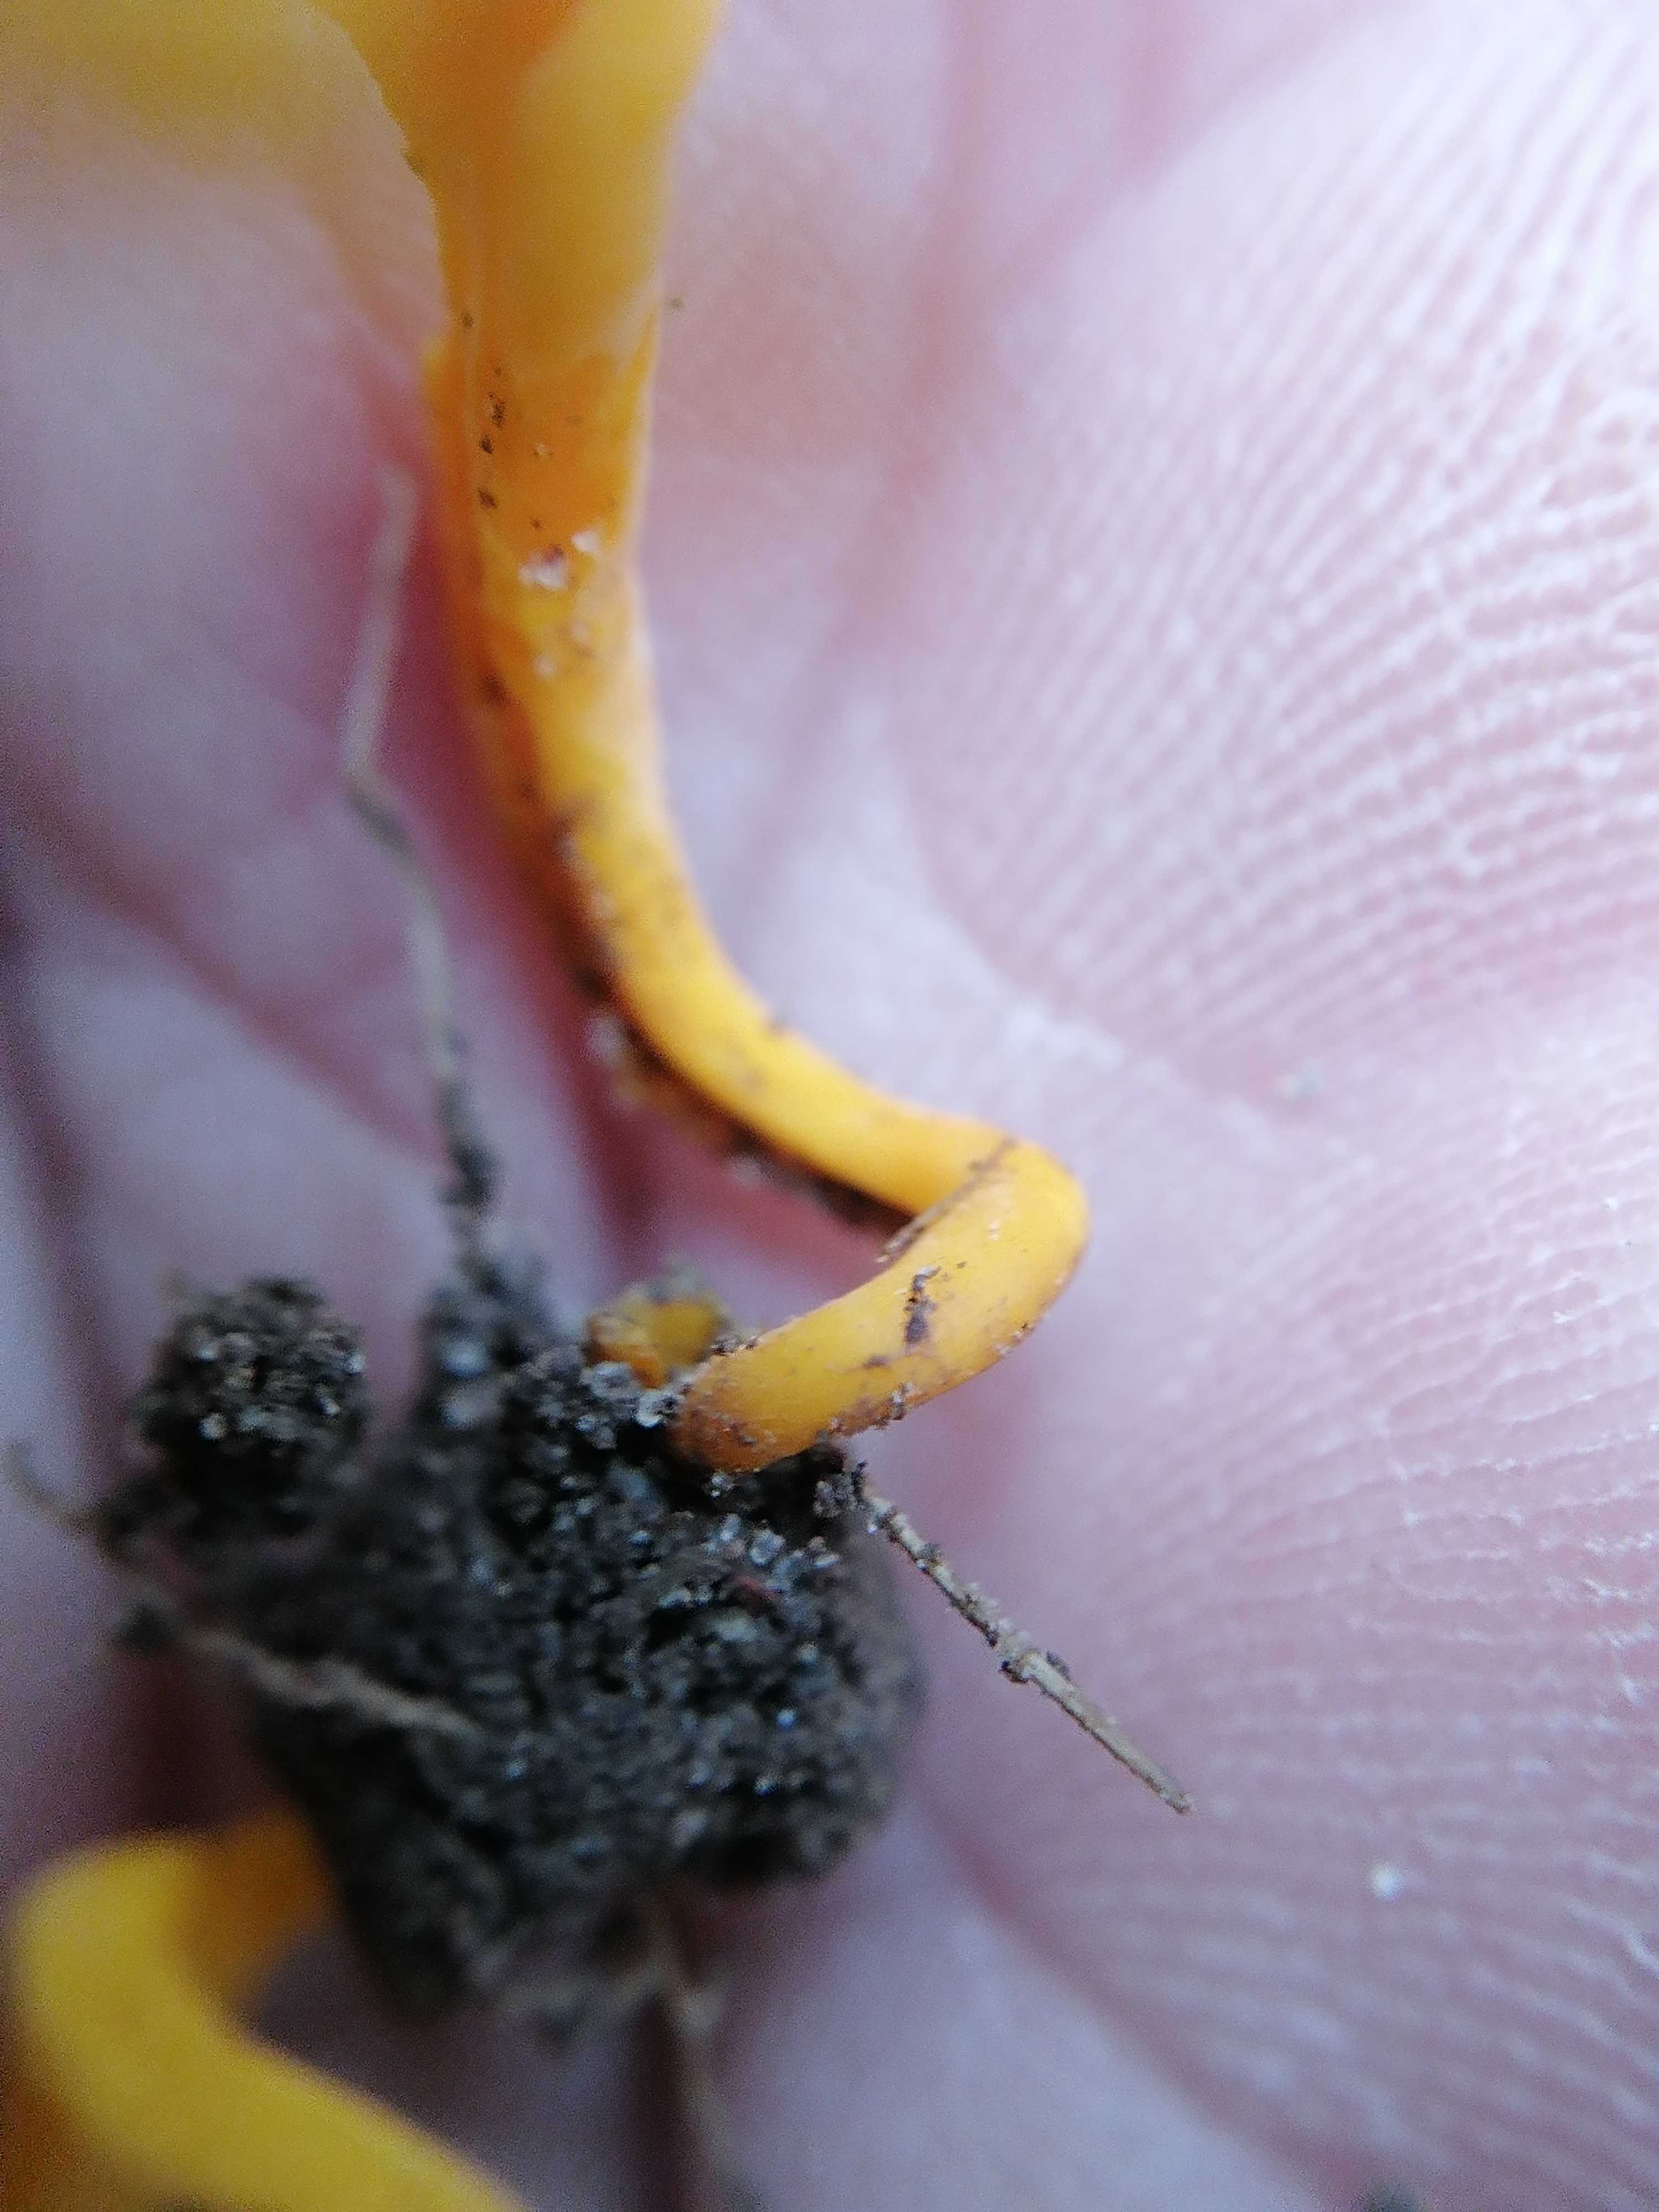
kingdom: Fungi
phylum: Basidiomycota
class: Agaricomycetes
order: Agaricales
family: Clavariaceae
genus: Clavulinopsis
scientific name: Clavulinopsis
